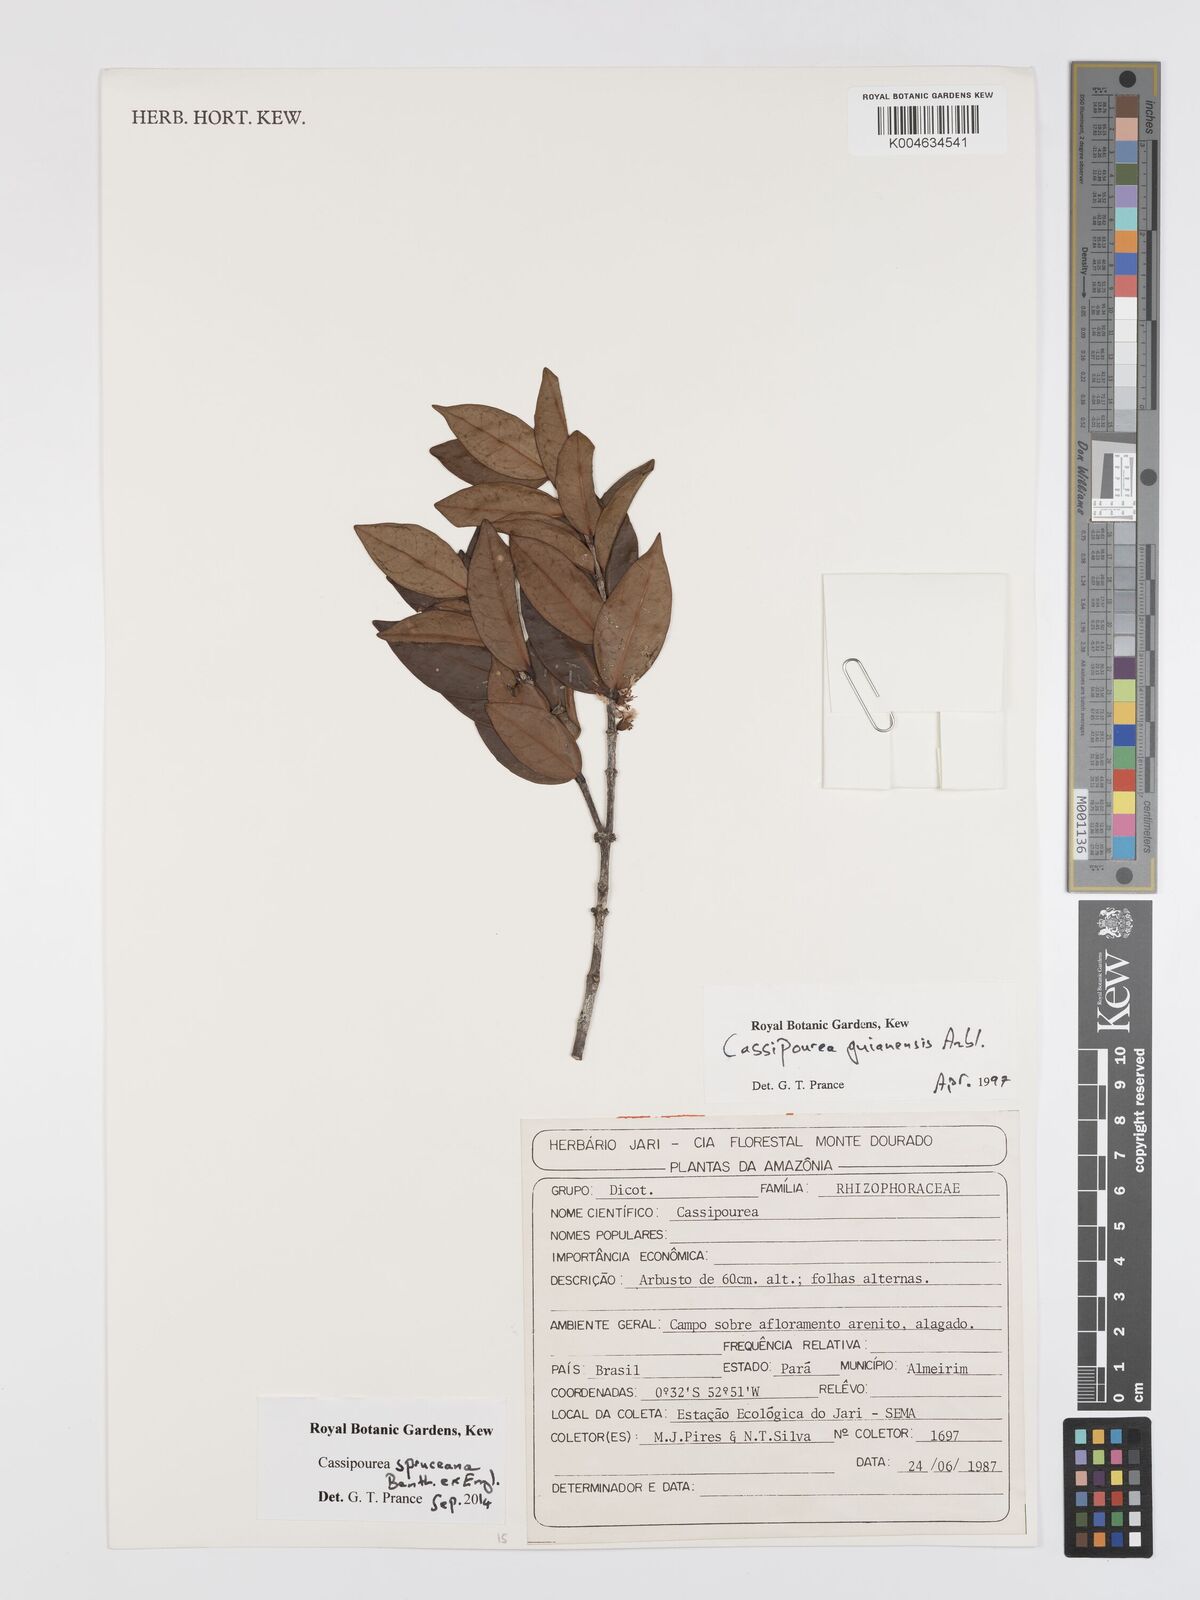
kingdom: Plantae
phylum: Tracheophyta
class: Magnoliopsida
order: Malpighiales
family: Rhizophoraceae
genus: Cassipourea
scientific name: Cassipourea spruceana
